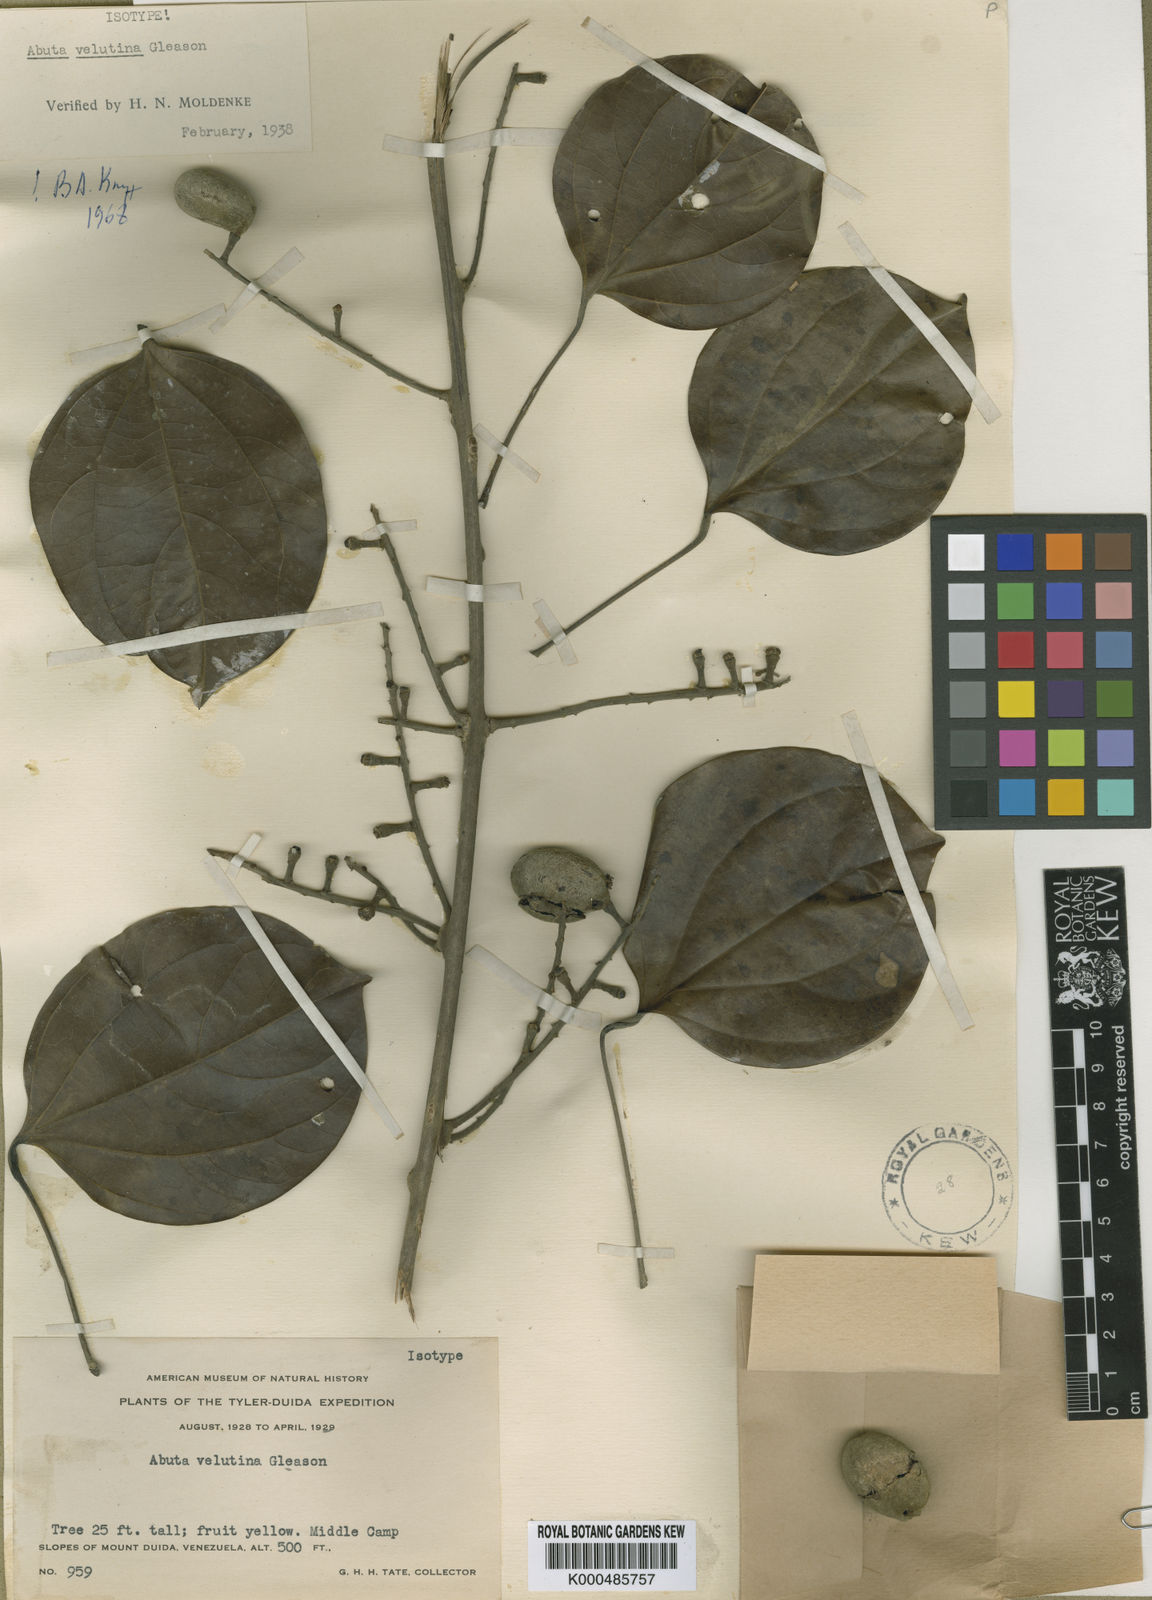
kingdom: Plantae
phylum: Tracheophyta
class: Magnoliopsida
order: Ranunculales
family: Menispermaceae
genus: Abuta
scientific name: Abuta velutina
